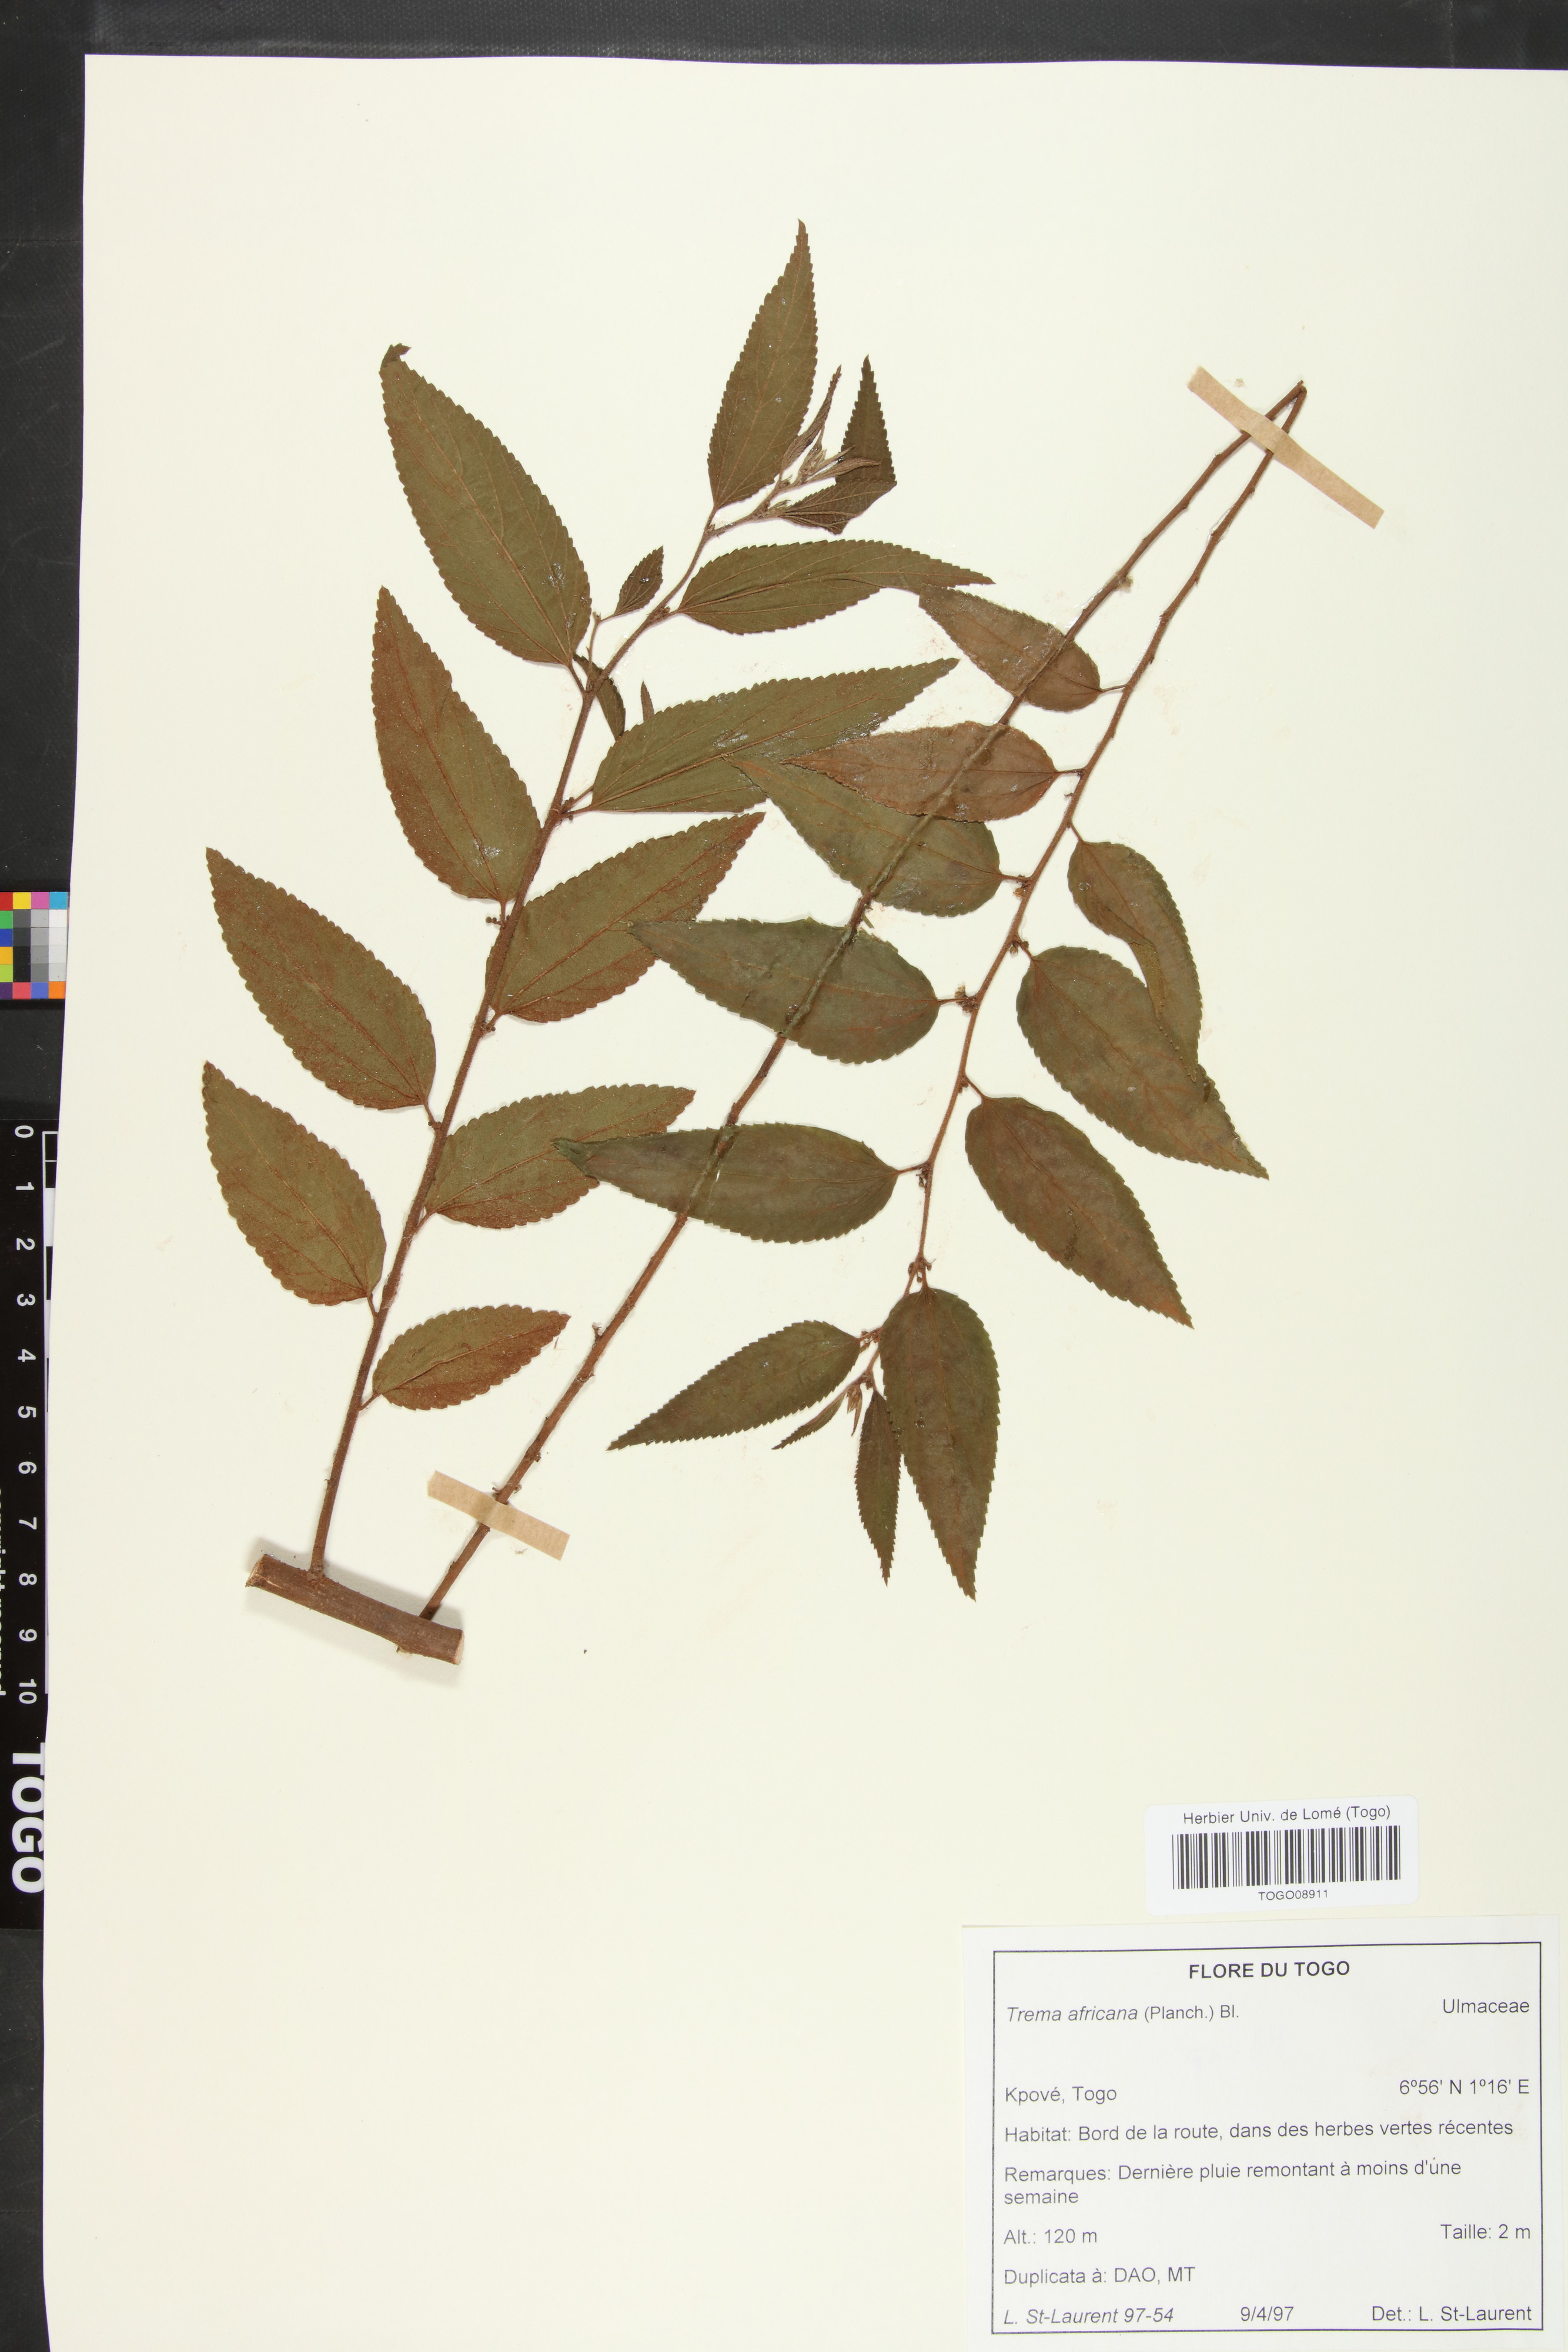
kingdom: Plantae
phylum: Tracheophyta
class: Magnoliopsida
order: Rosales
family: Cannabaceae
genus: Trema
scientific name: Trema orientale
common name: Indian charcoal tree
